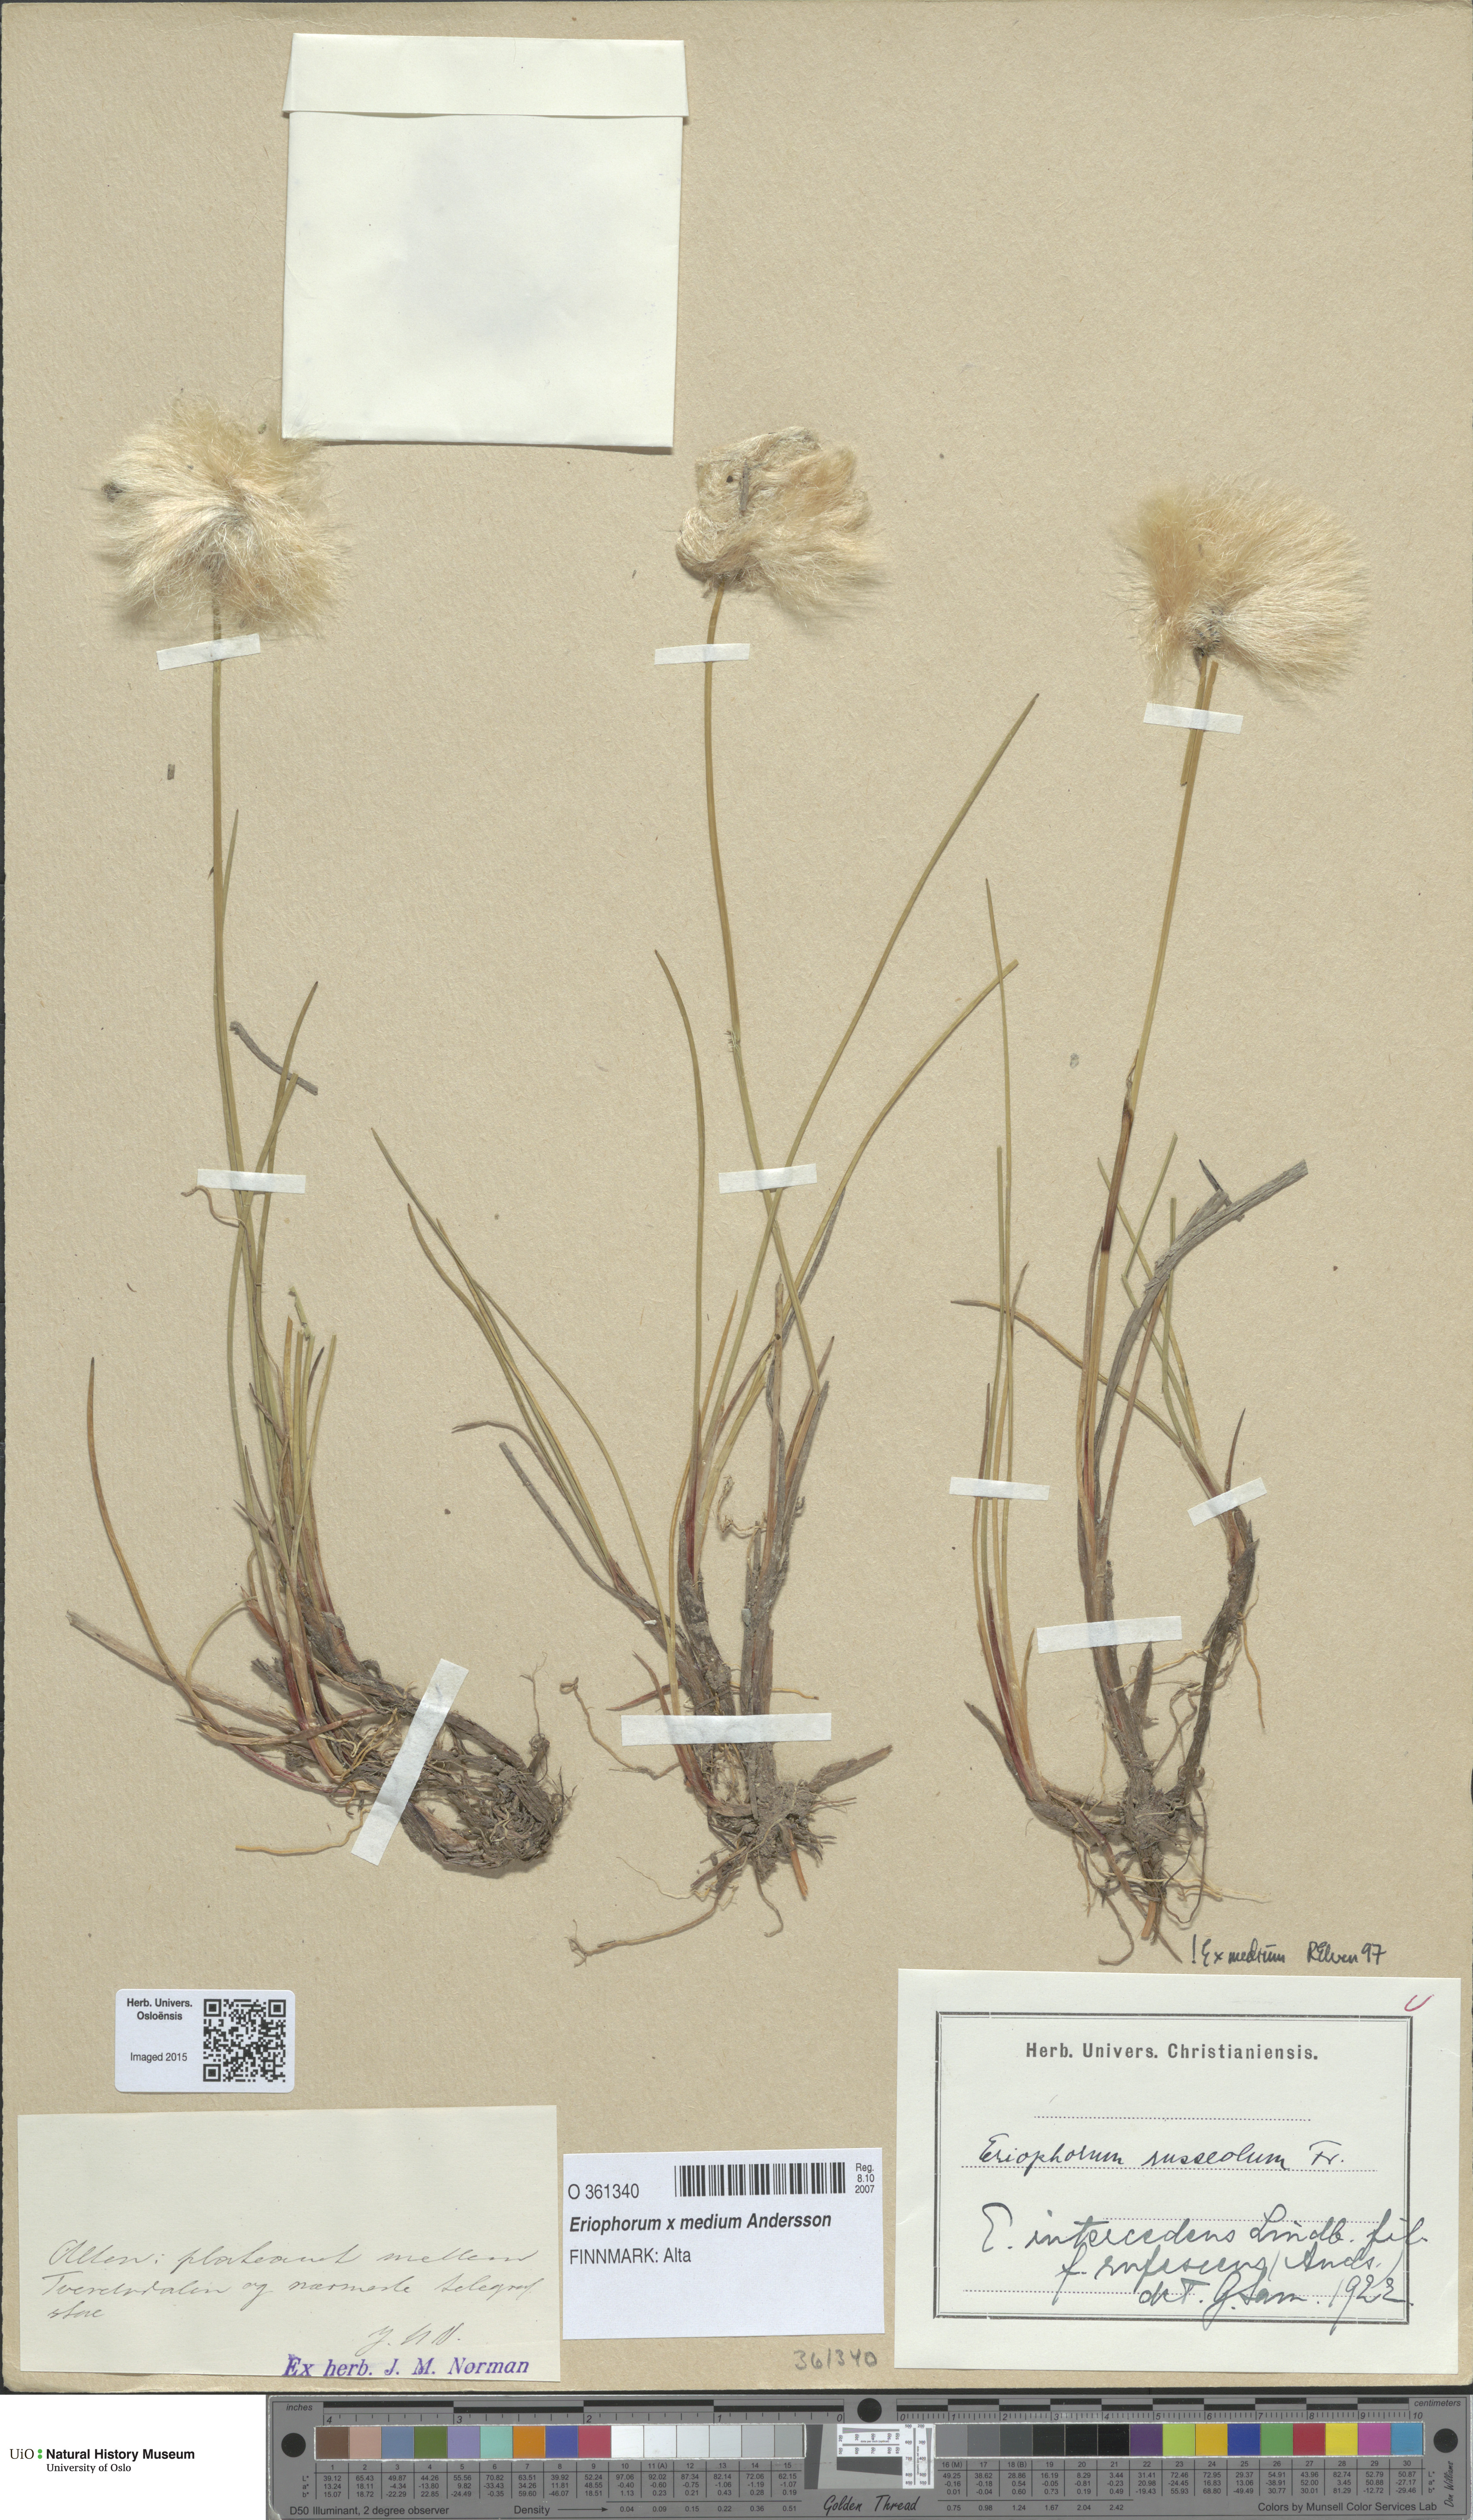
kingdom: Plantae
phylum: Tracheophyta
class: Liliopsida
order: Poales
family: Cyperaceae
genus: Eriophorum
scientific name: Eriophorum medium
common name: Intermediate cottongrass
